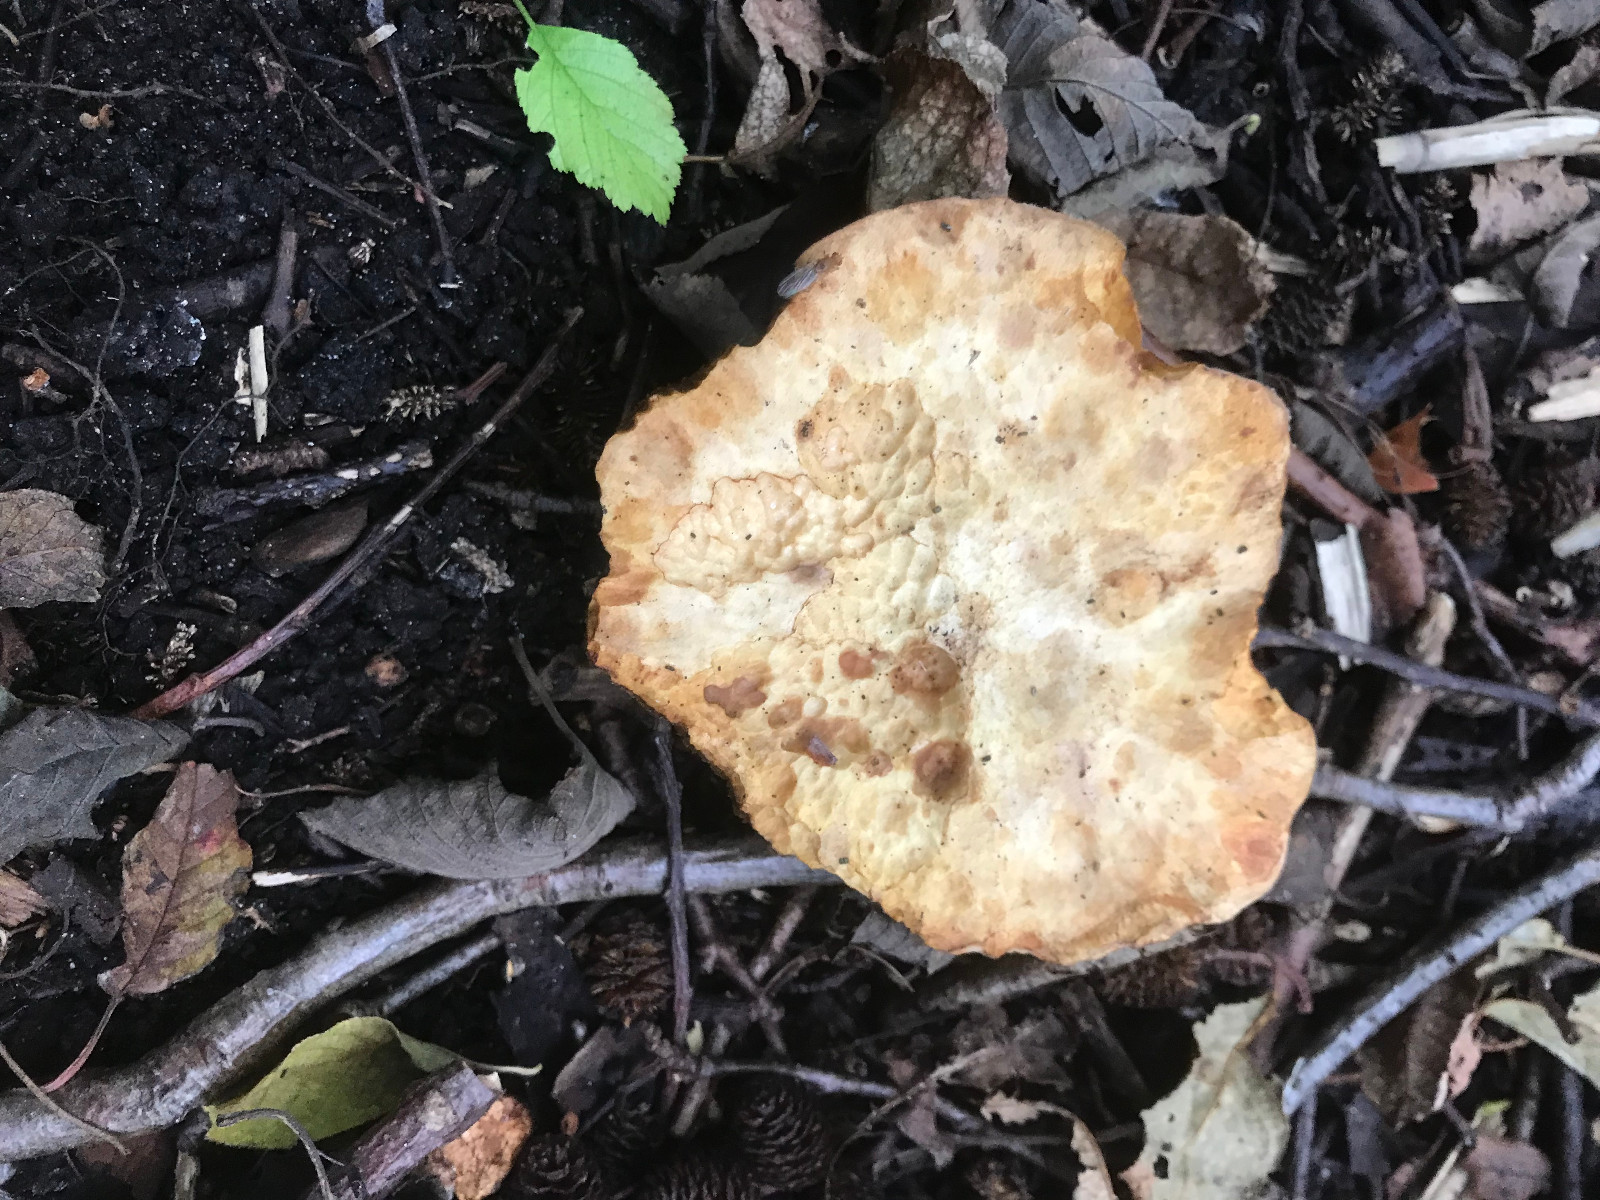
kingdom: Fungi
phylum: Basidiomycota
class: Agaricomycetes
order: Boletales
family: Paxillaceae
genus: Gyrodon
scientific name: Gyrodon lividus
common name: ellerørhat
